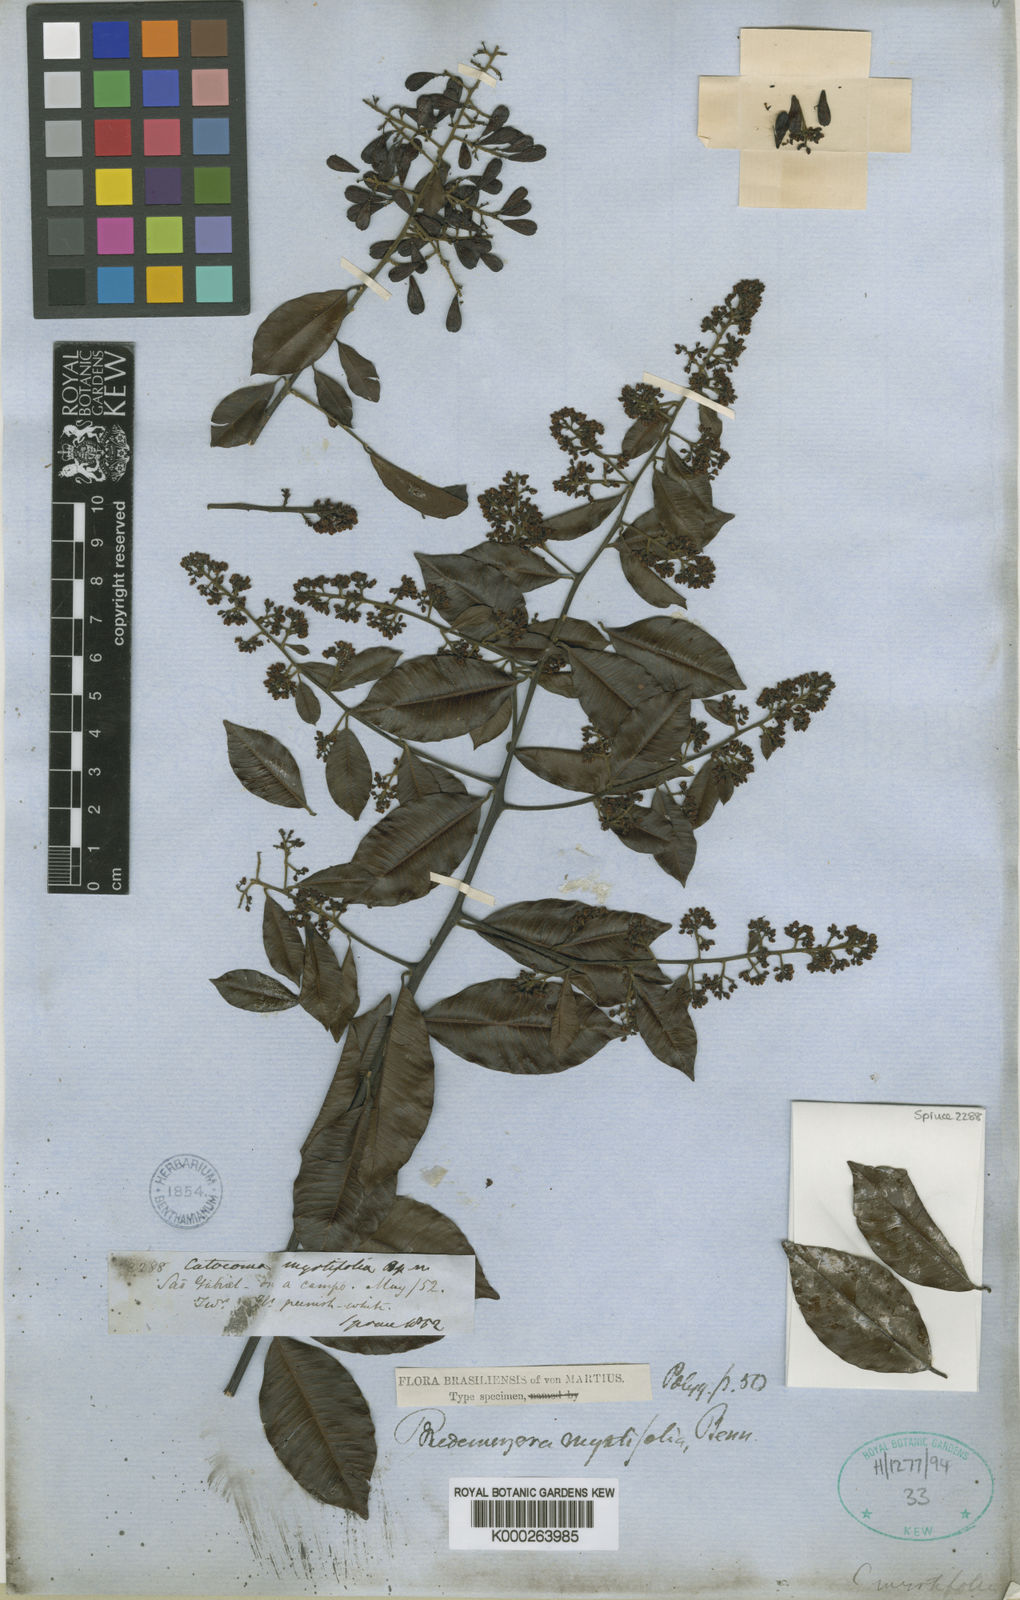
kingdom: Plantae
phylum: Tracheophyta
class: Magnoliopsida
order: Fabales
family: Polygalaceae
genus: Bredemeyera
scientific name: Bredemeyera myrtifolia
